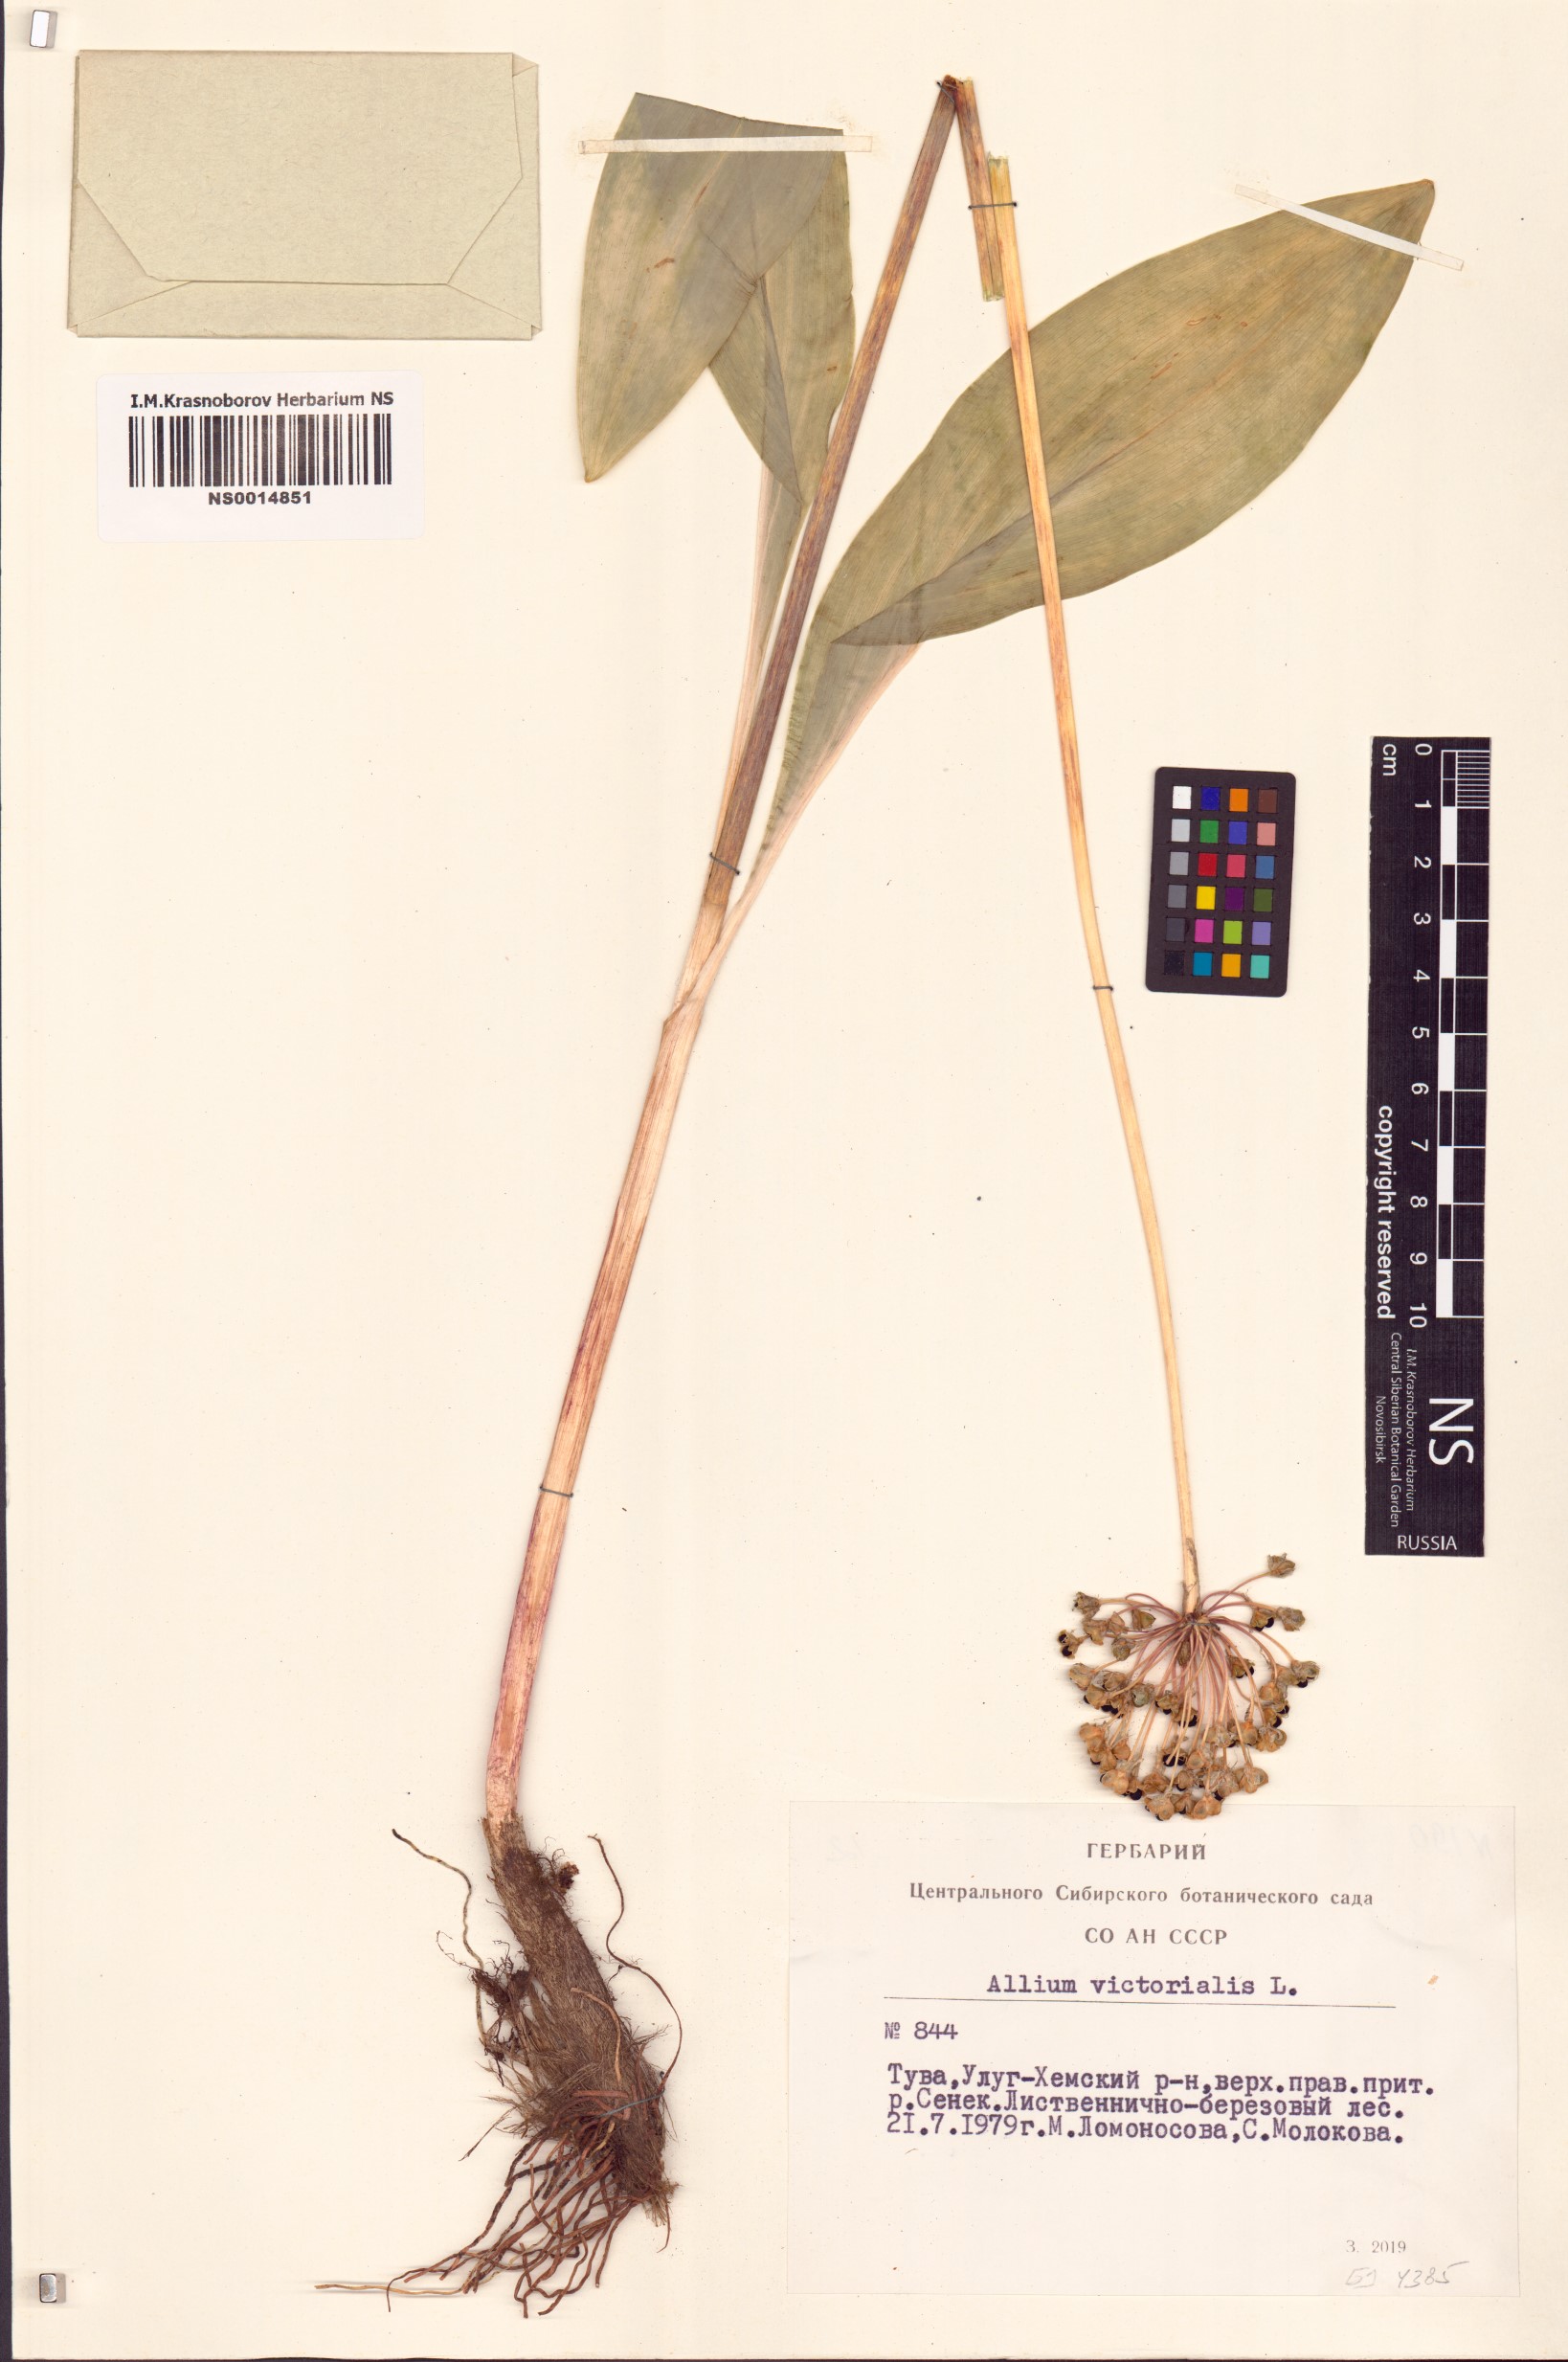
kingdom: Plantae
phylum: Tracheophyta
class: Liliopsida
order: Asparagales
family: Amaryllidaceae
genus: Allium
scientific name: Allium victorialis
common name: Alpine leek
